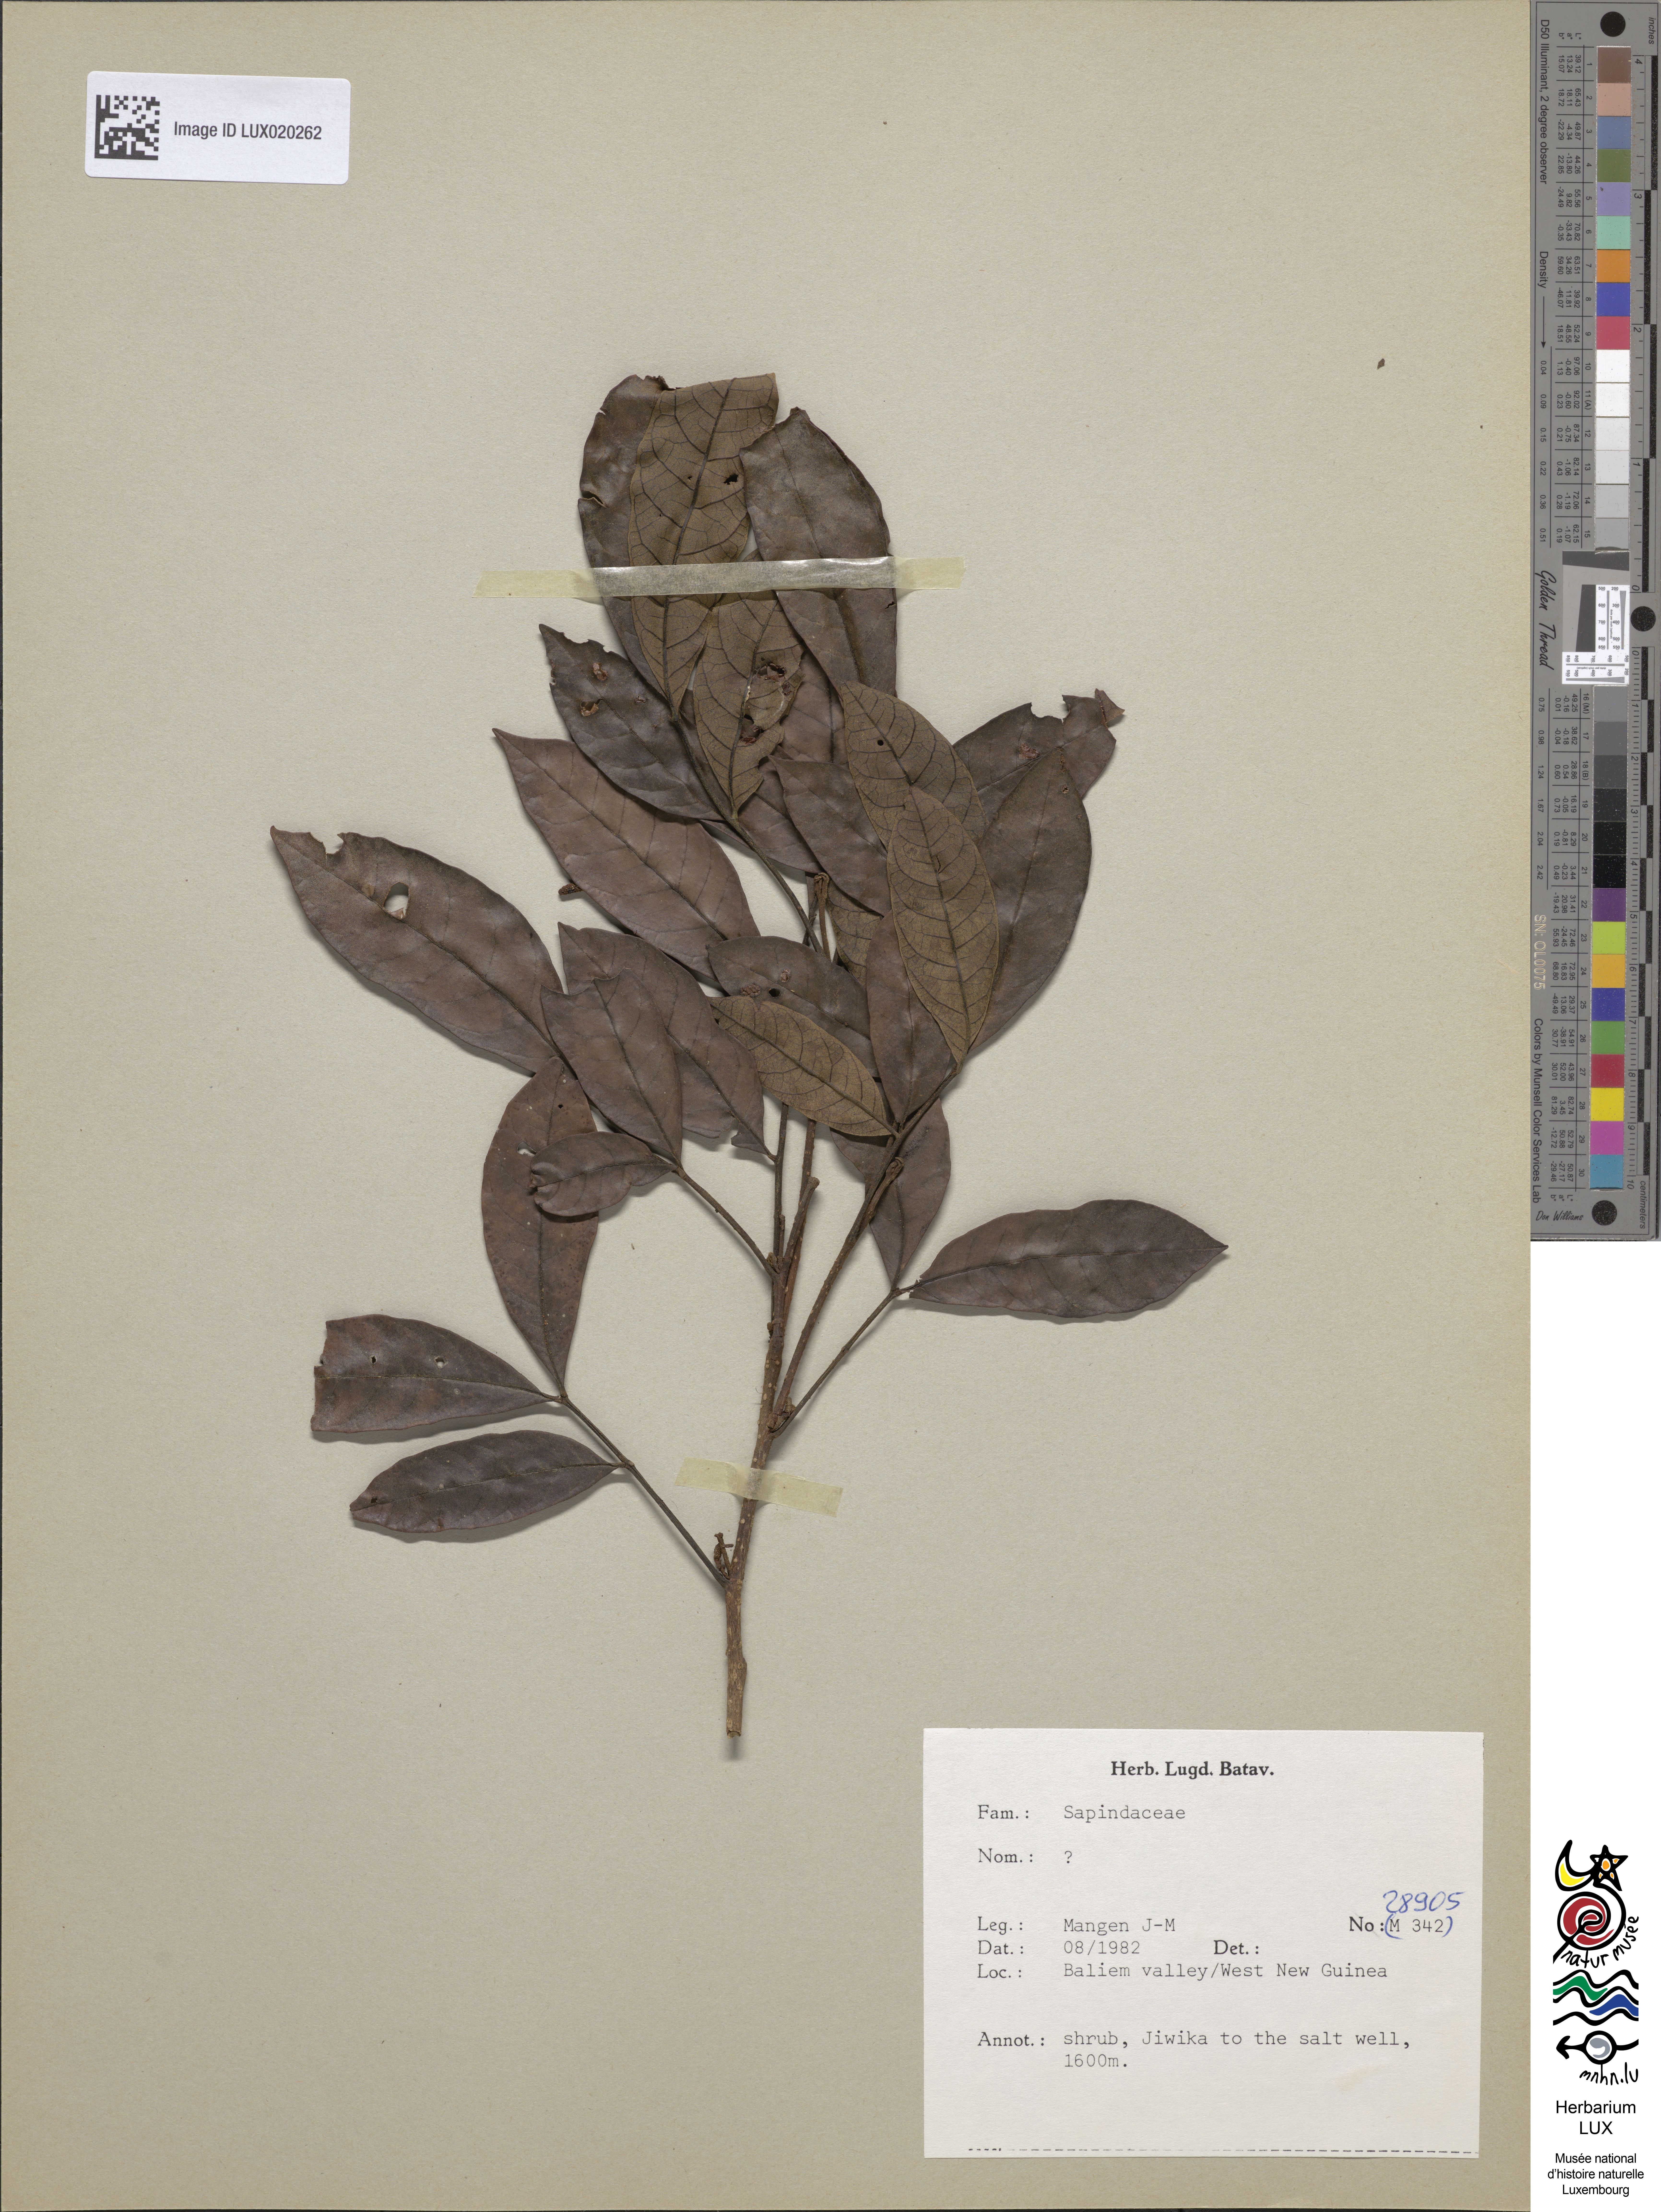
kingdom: Plantae
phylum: Tracheophyta
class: Magnoliopsida
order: Sapindales
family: Sapindaceae
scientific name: Sapindaceae
